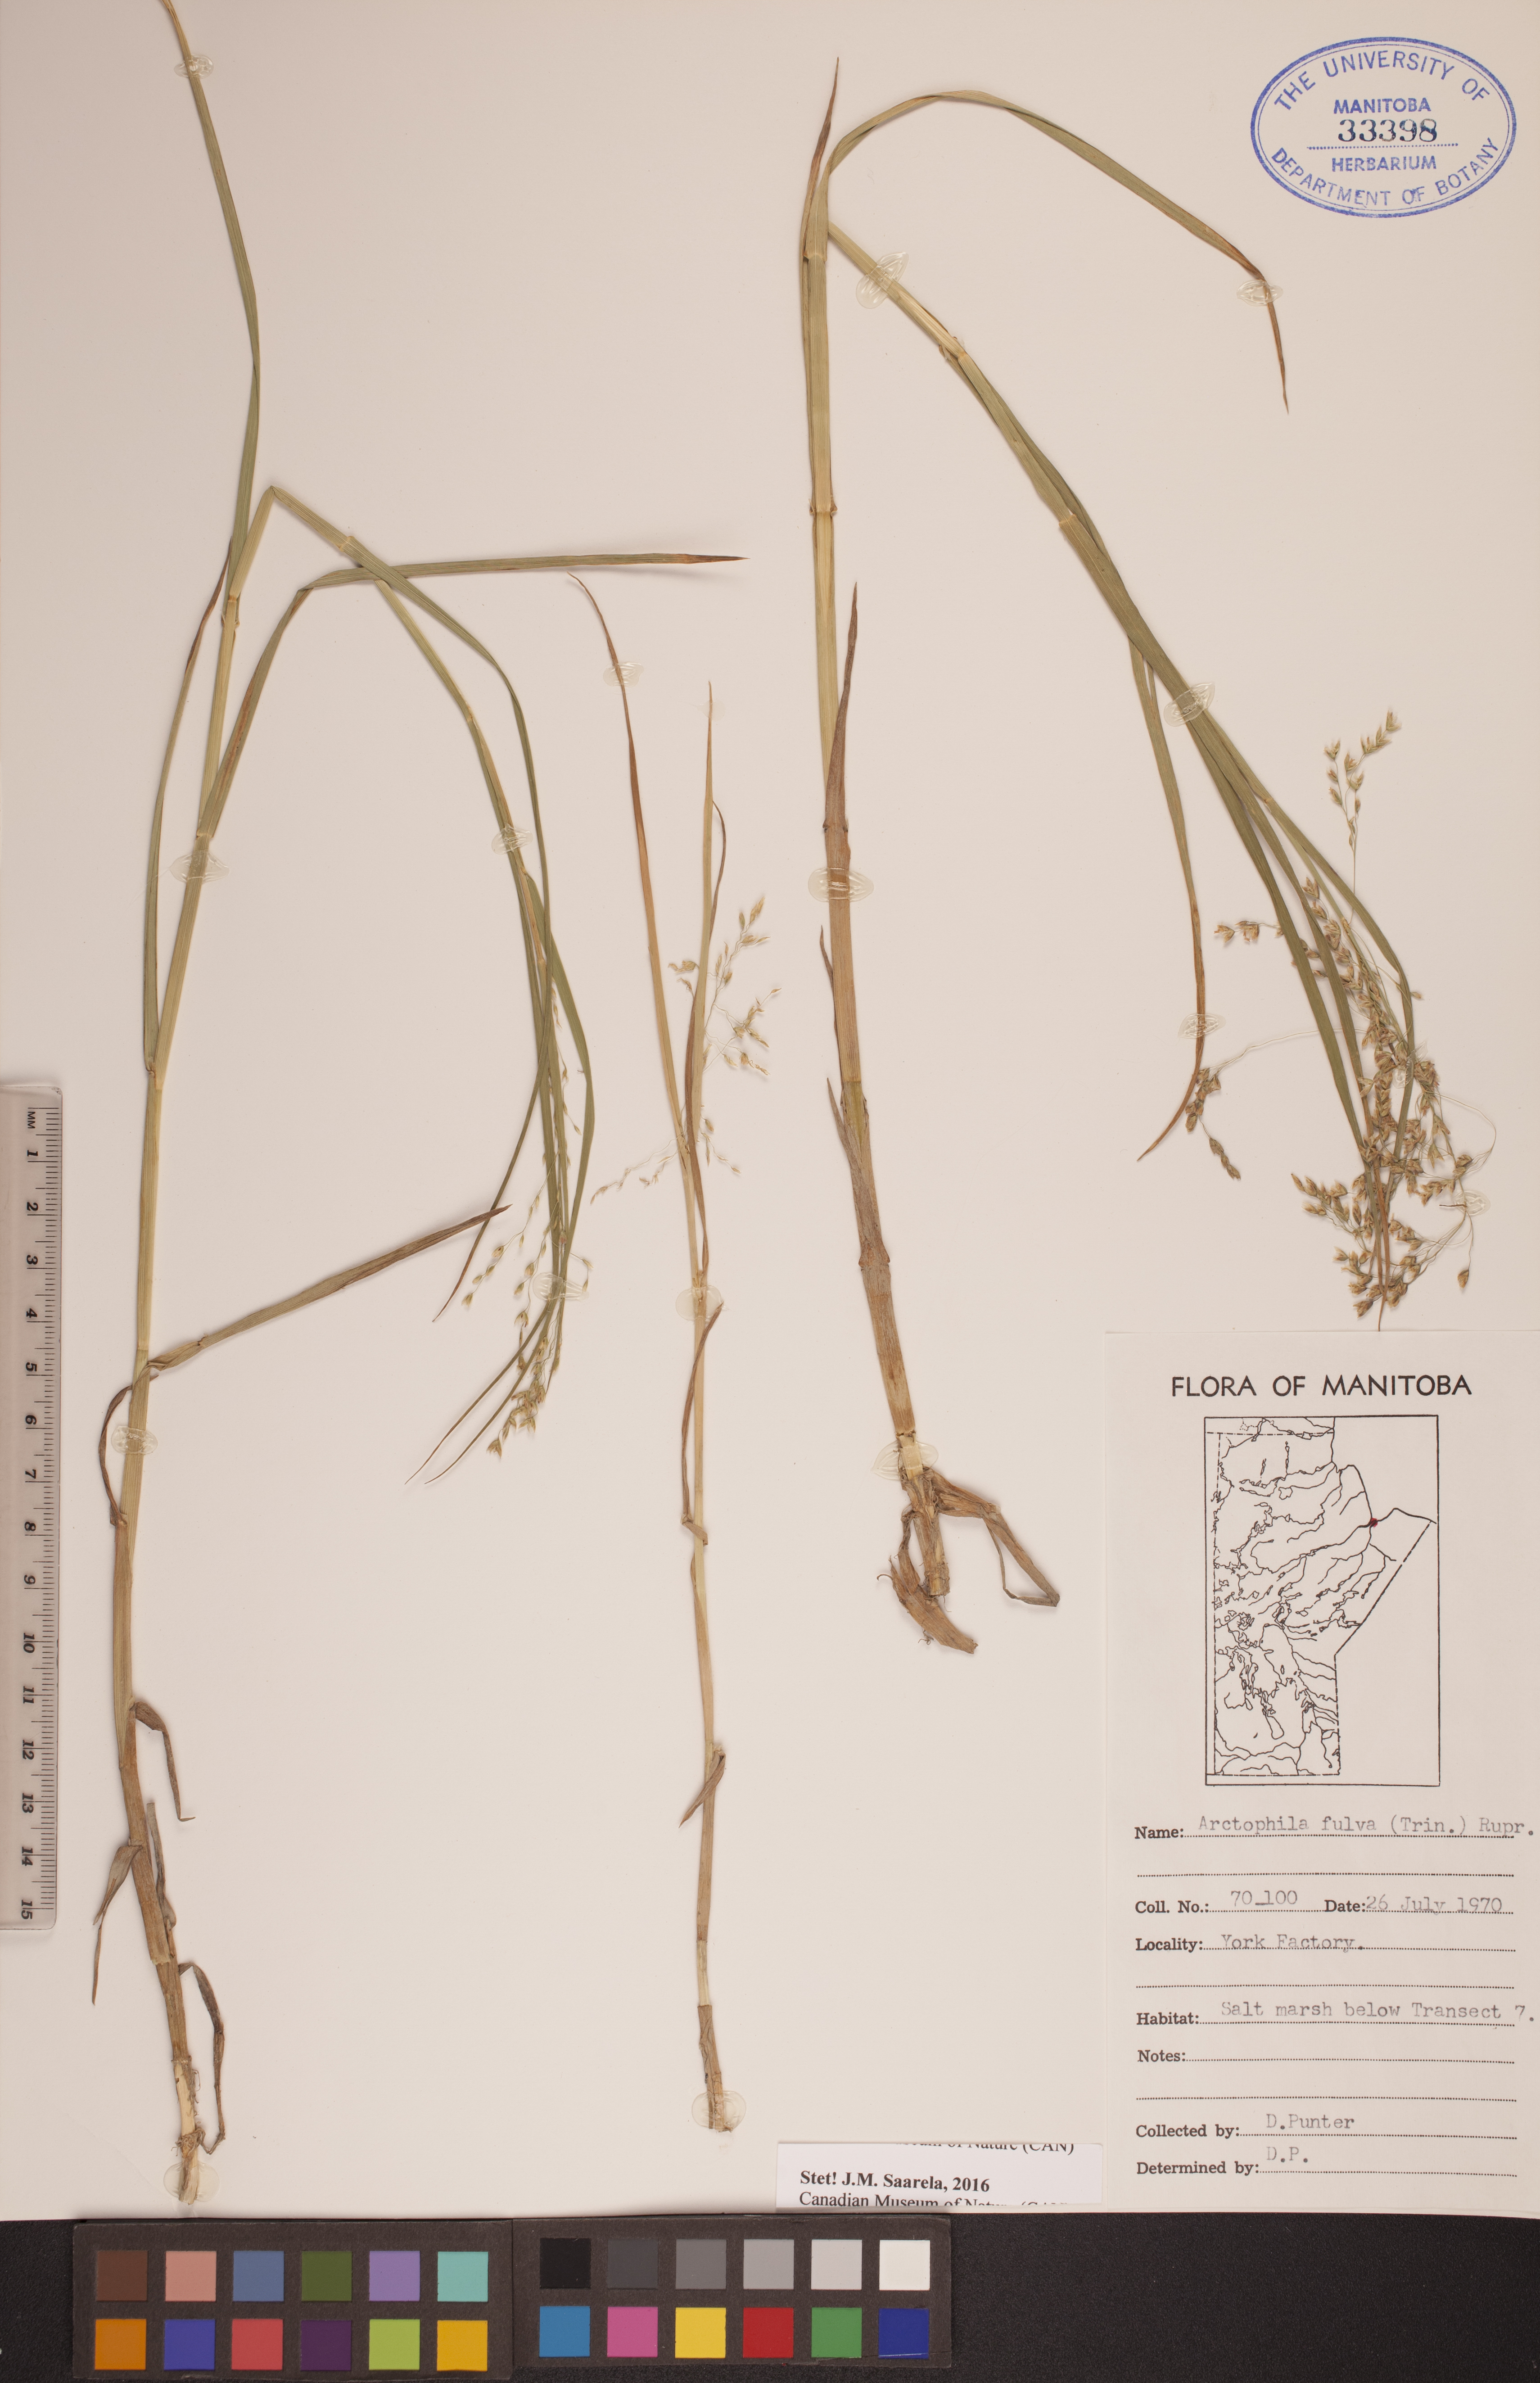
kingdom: Plantae
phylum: Tracheophyta
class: Liliopsida
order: Poales
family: Poaceae
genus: Dupontia
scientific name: Dupontia fulva
